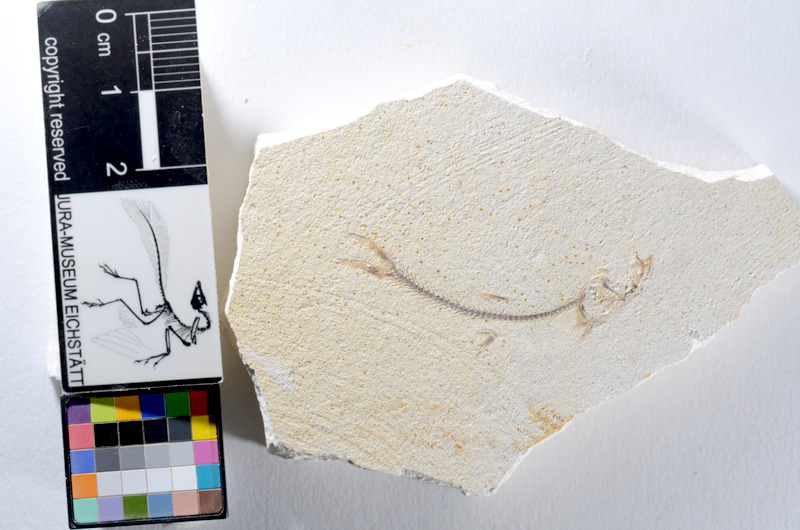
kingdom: Animalia
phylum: Chordata
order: Salmoniformes
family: Orthogonikleithridae
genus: Orthogonikleithrus
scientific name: Orthogonikleithrus hoelli
